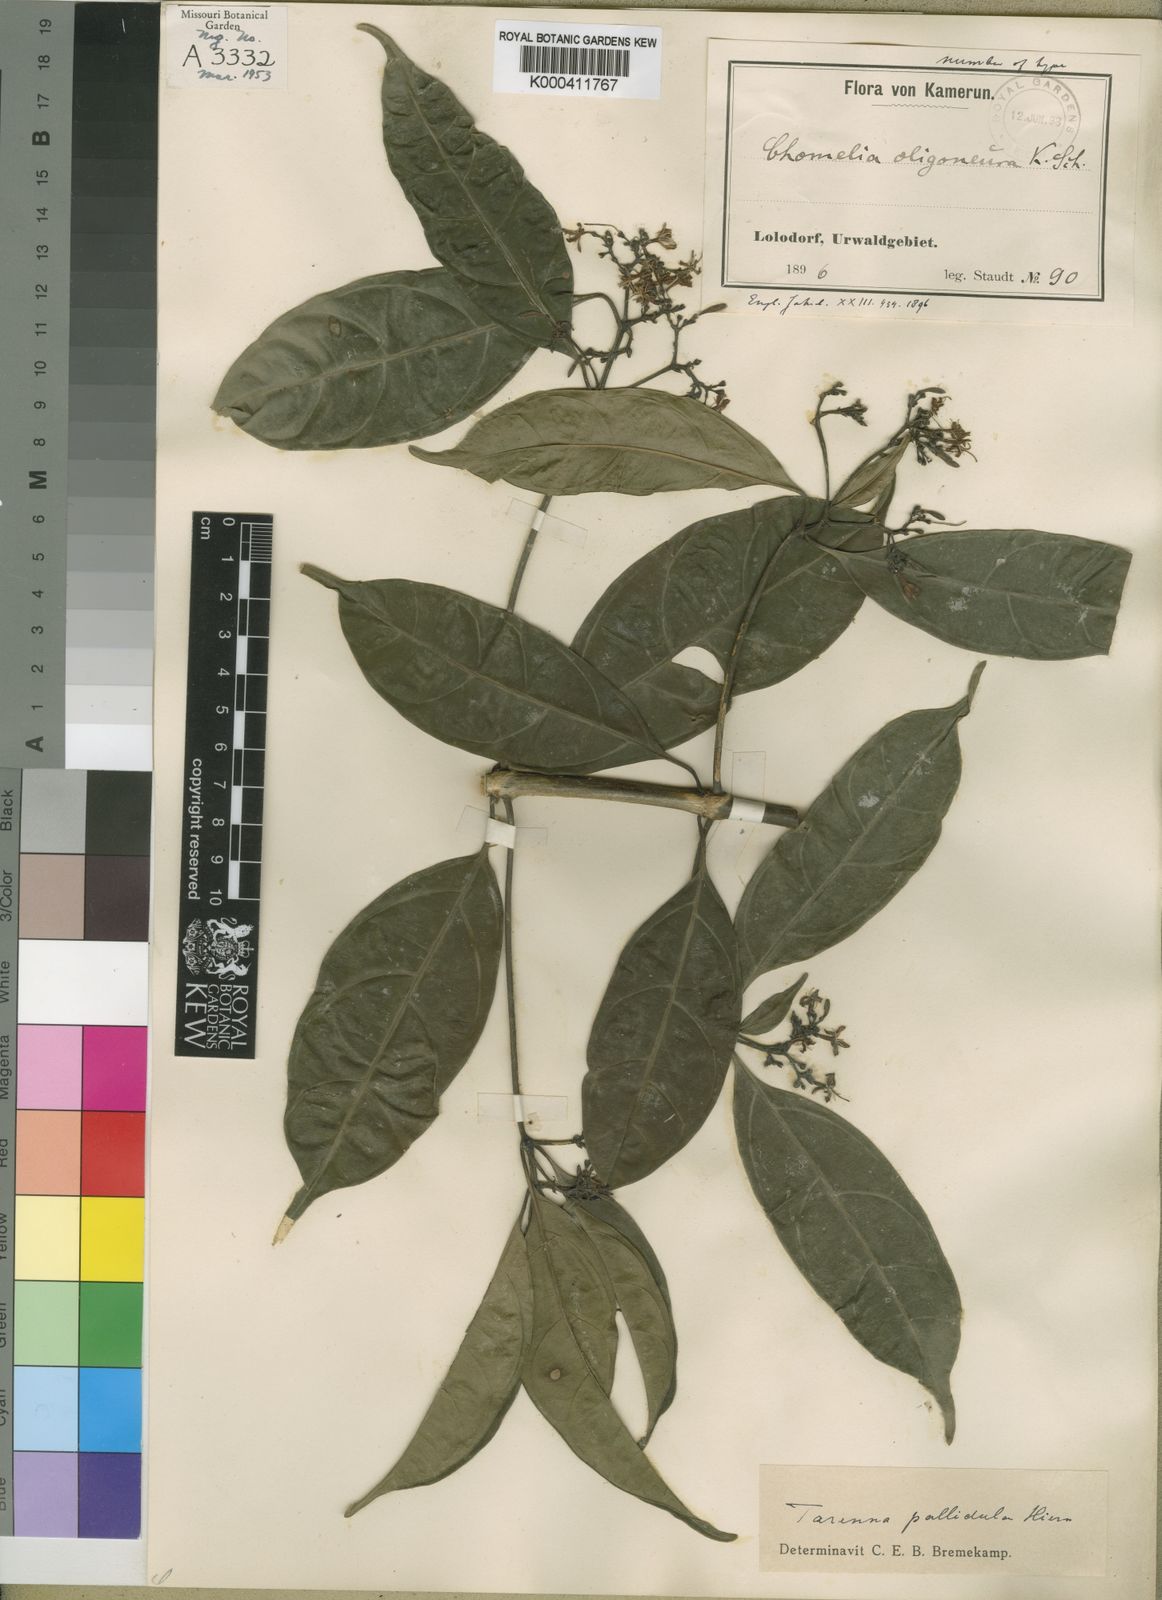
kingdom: Plantae
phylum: Tracheophyta
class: Magnoliopsida
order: Gentianales
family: Rubiaceae
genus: Tarenna
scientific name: Tarenna pallidula
